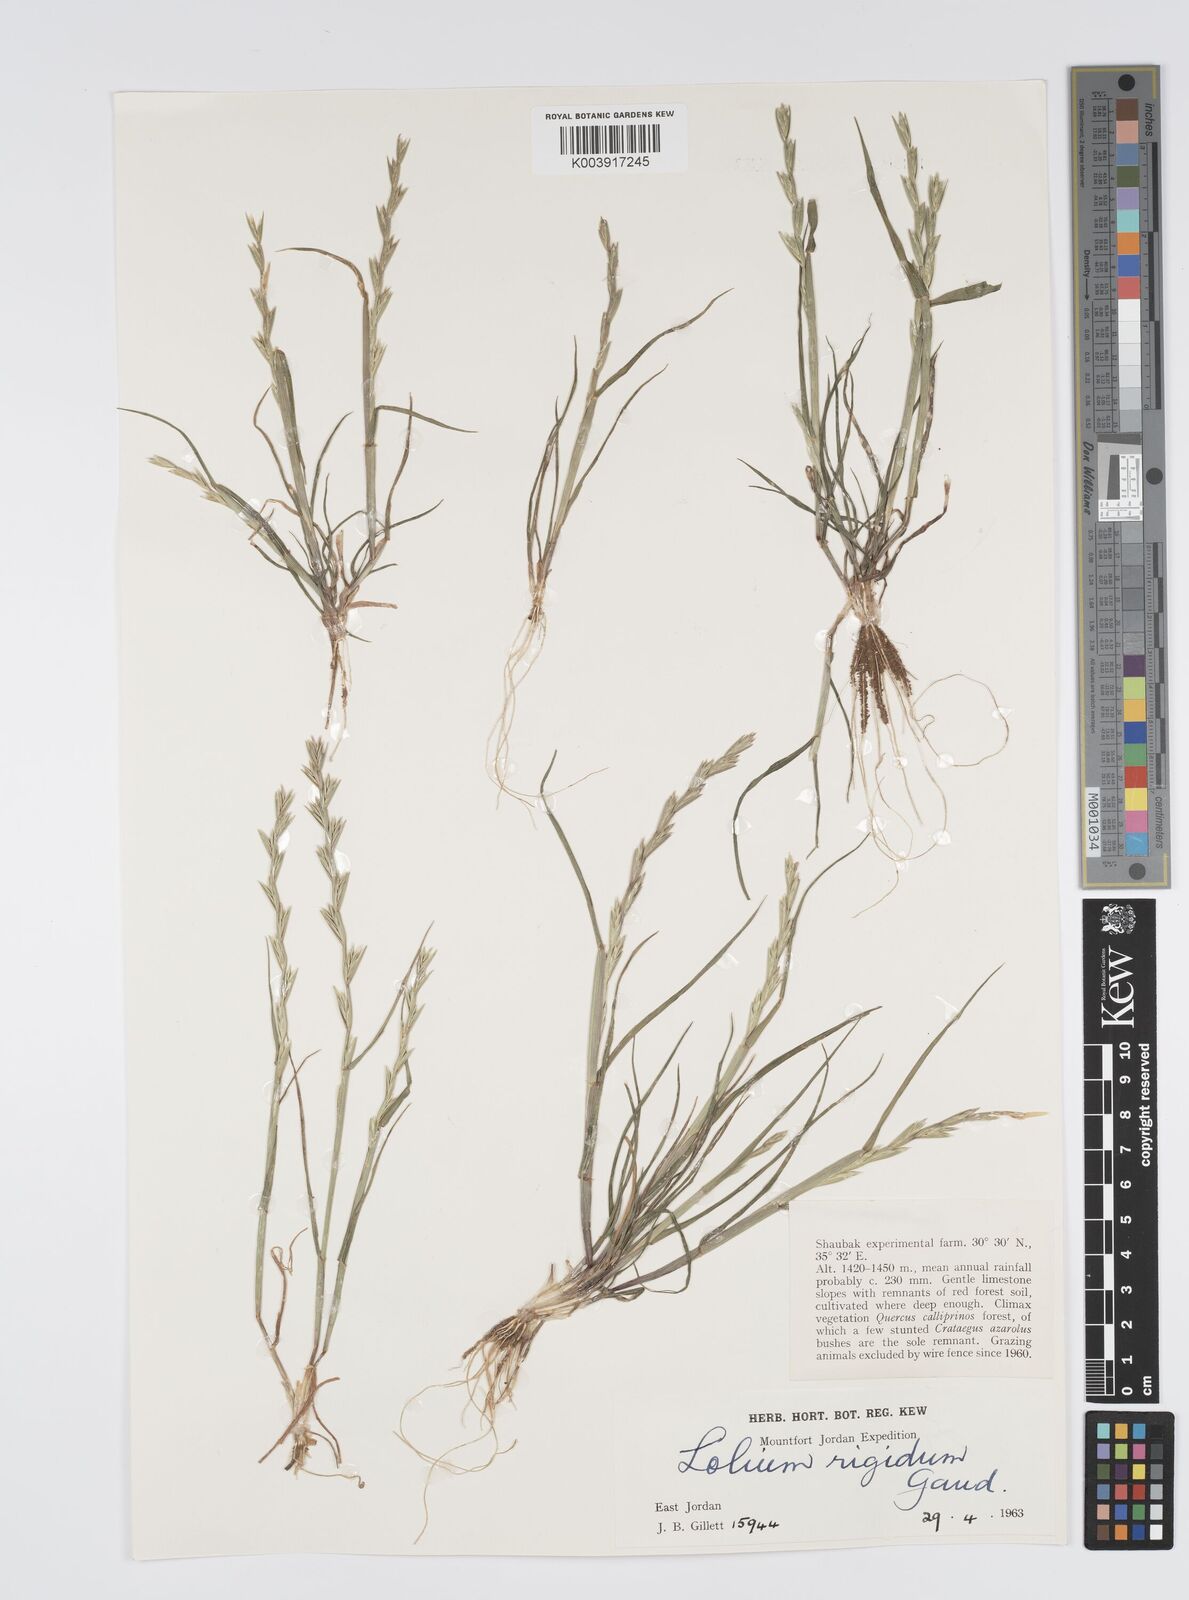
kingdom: Plantae
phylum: Tracheophyta
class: Liliopsida
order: Poales
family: Poaceae
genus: Lolium
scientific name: Lolium rigidum
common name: Wimmera ryegrass
